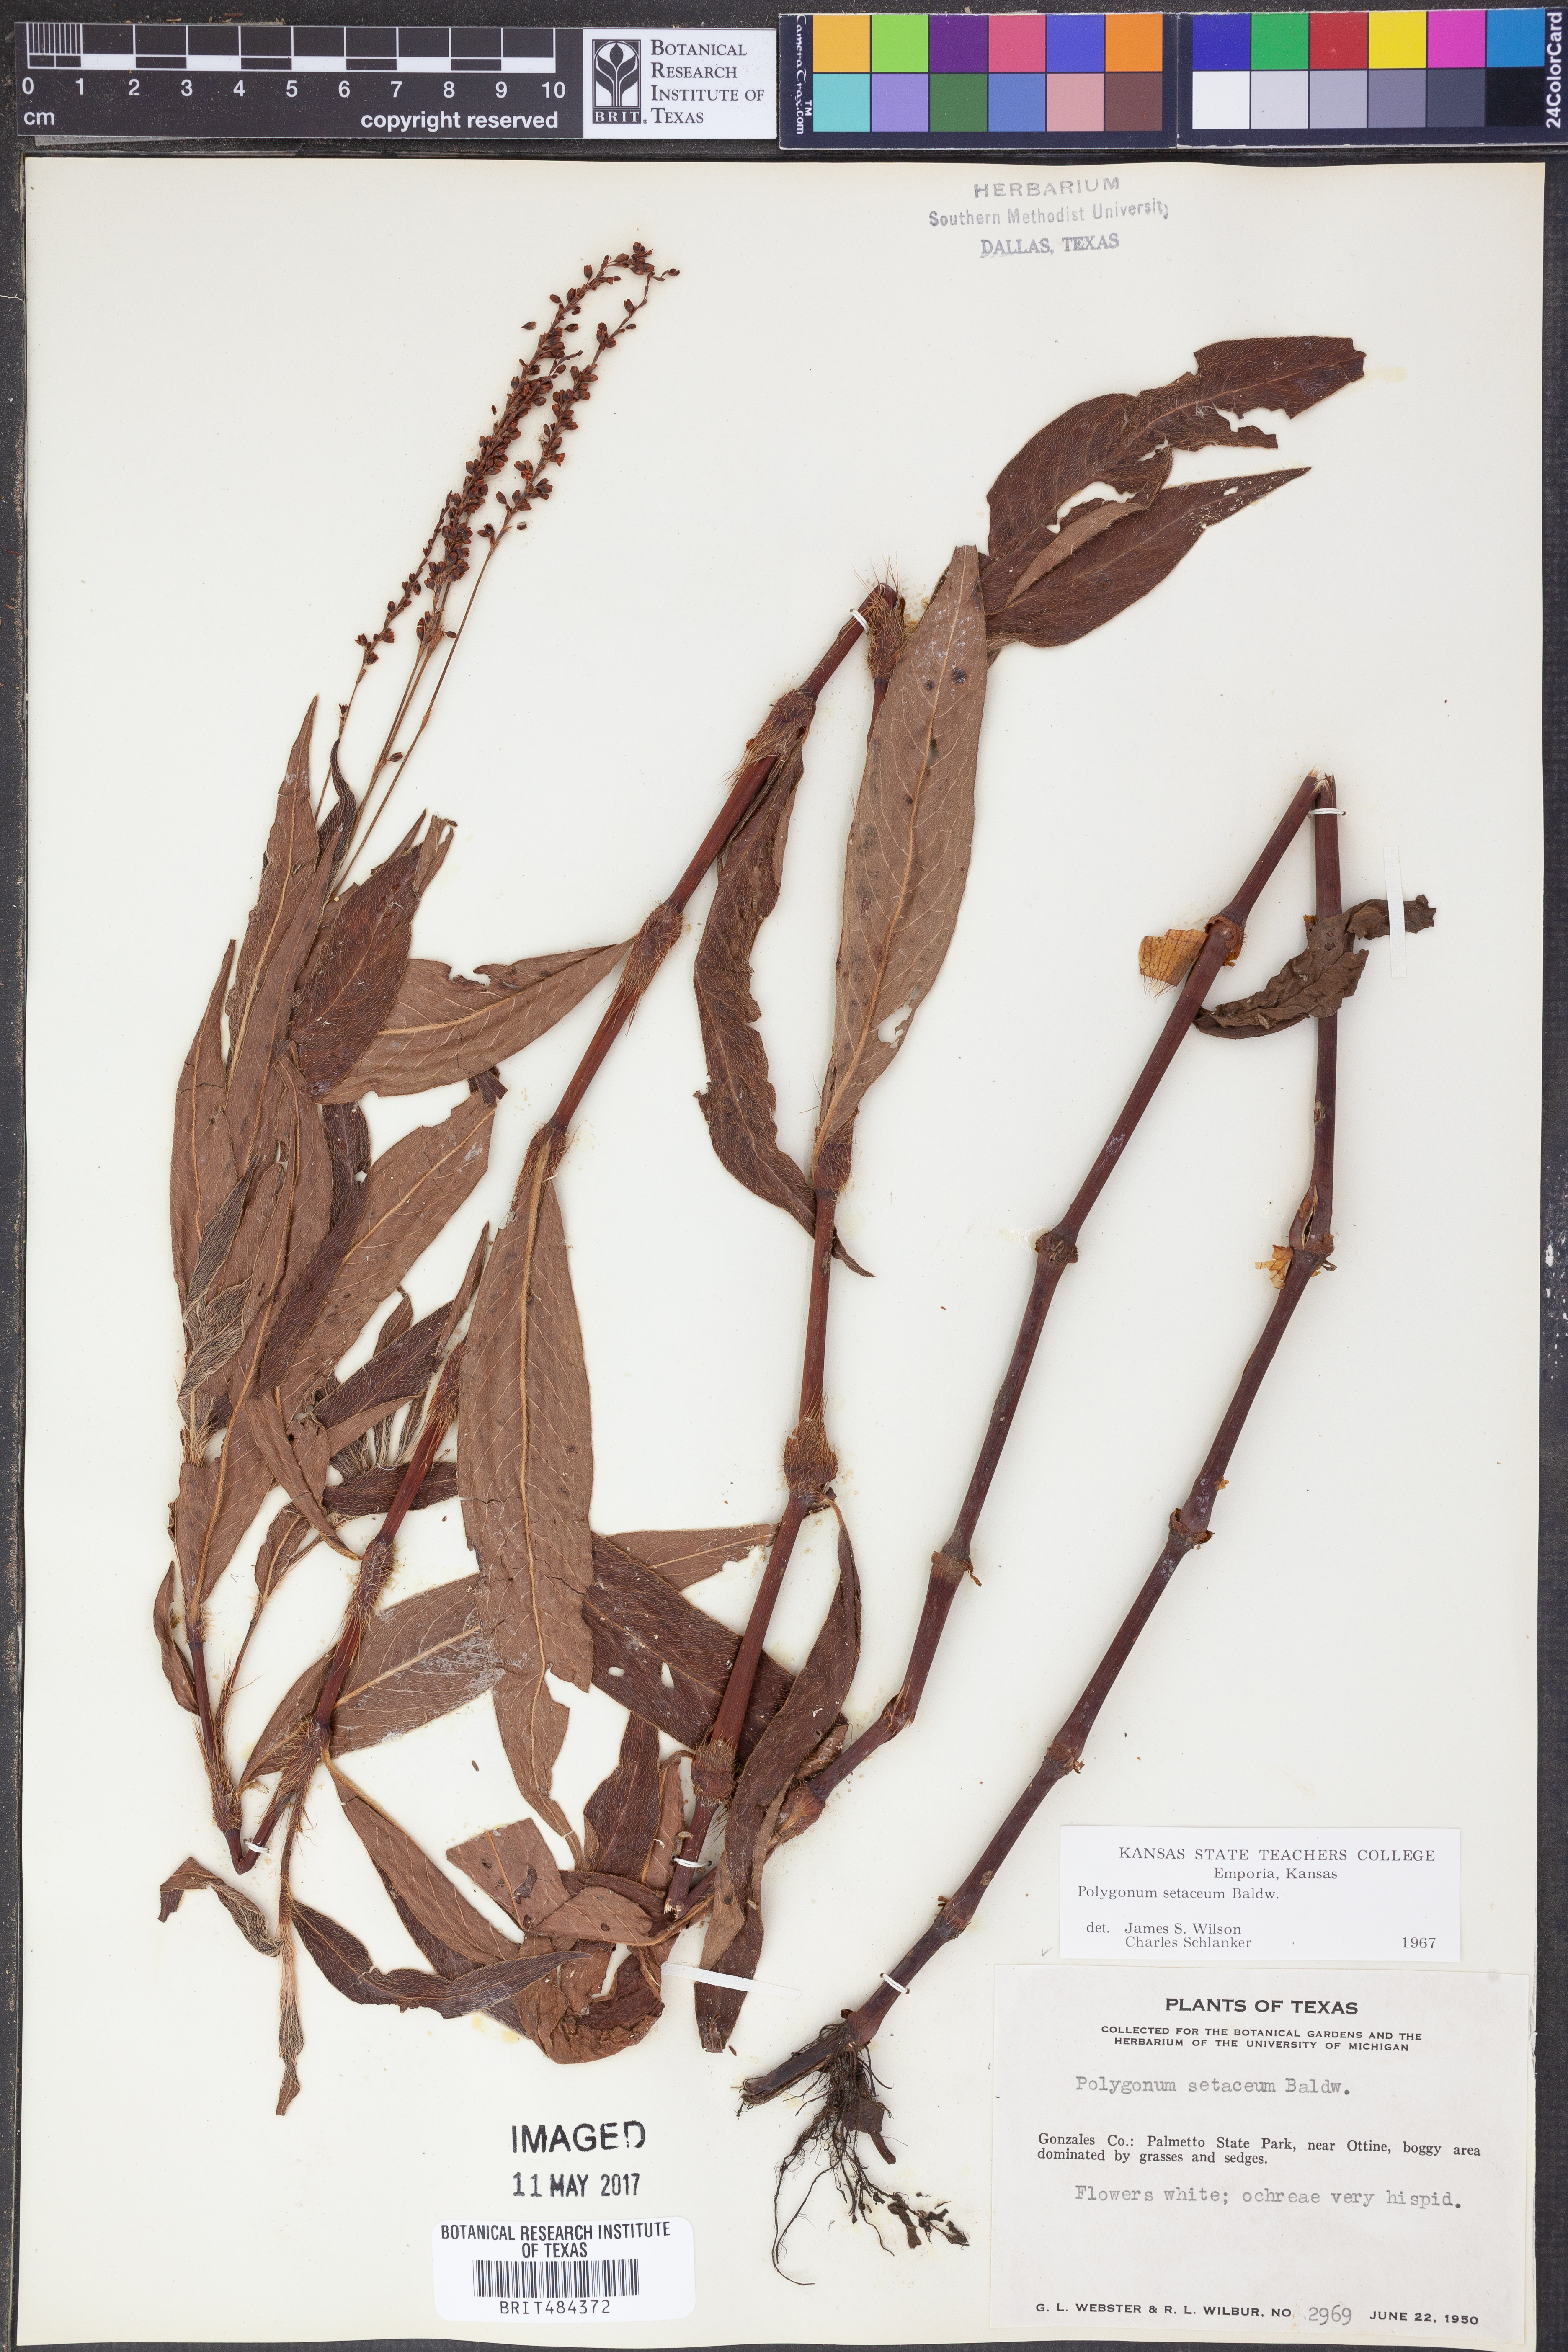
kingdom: Plantae
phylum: Tracheophyta
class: Magnoliopsida
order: Caryophyllales
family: Polygonaceae
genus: Persicaria
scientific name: Persicaria setacea
